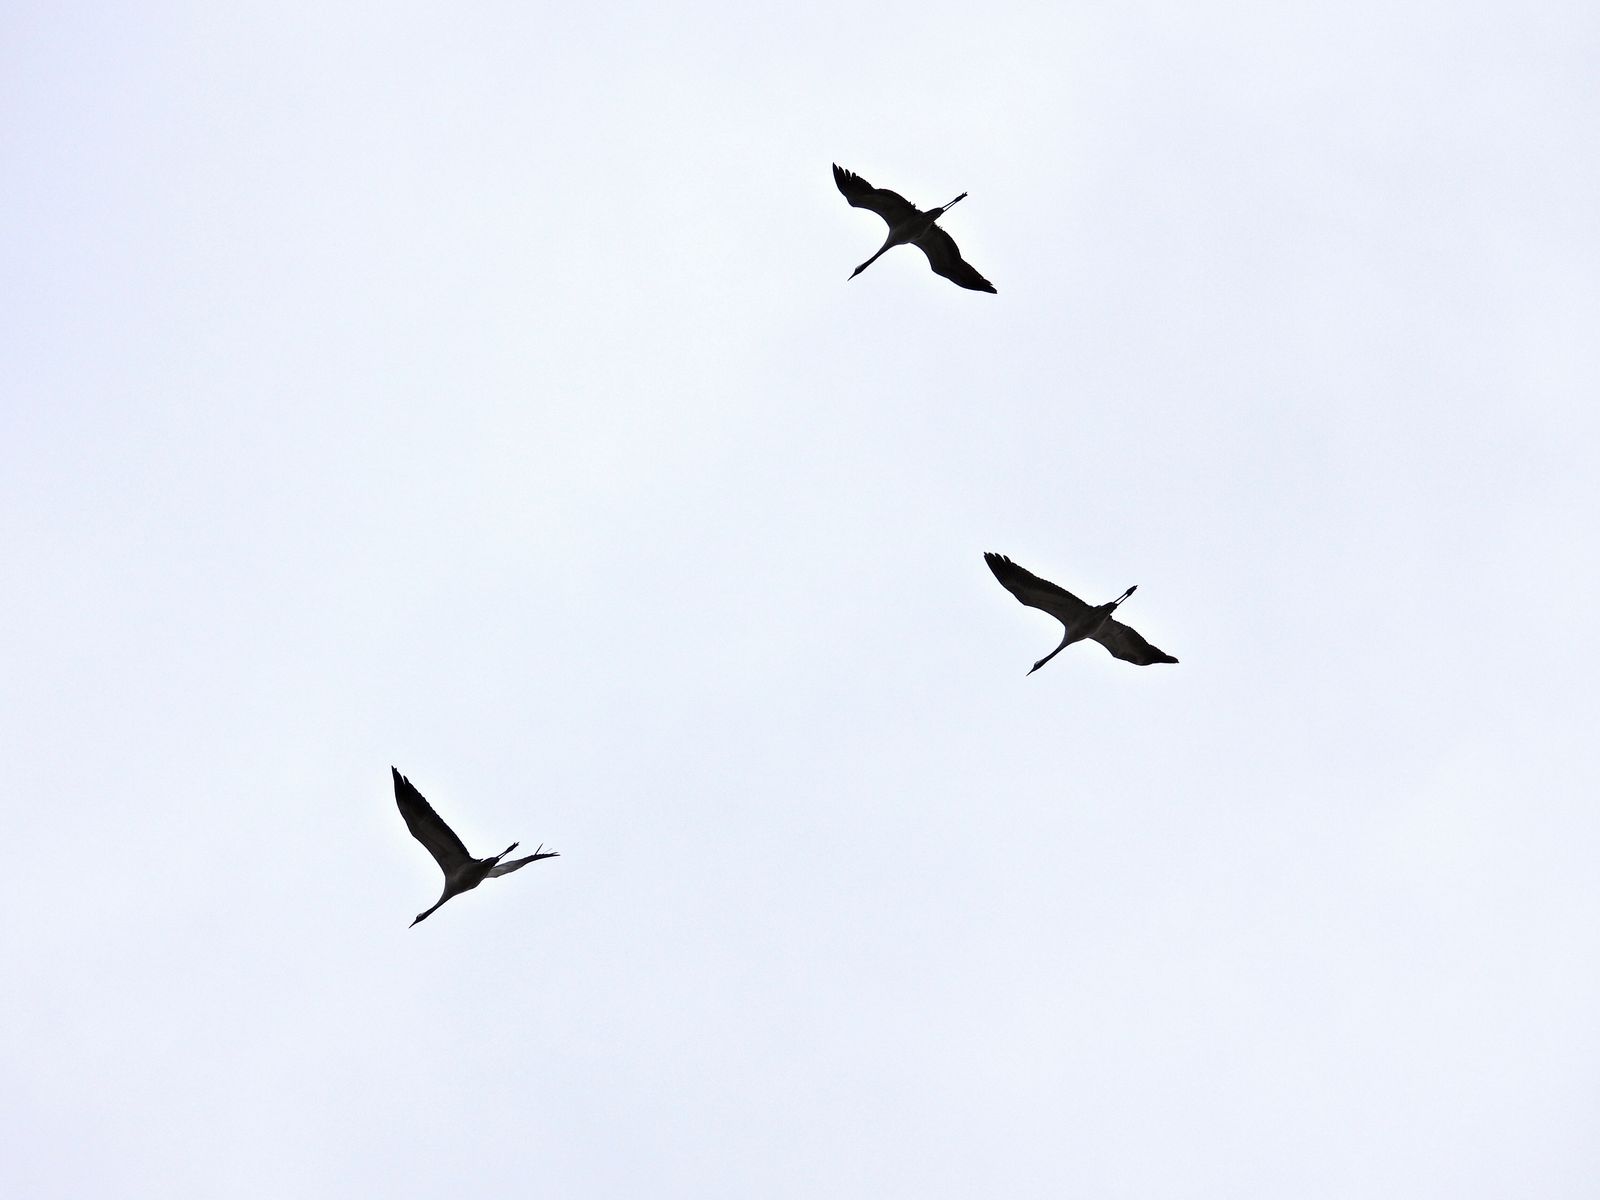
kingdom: Animalia
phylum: Chordata
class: Aves
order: Gruiformes
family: Gruidae
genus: Grus
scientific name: Grus grus
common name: Common crane
